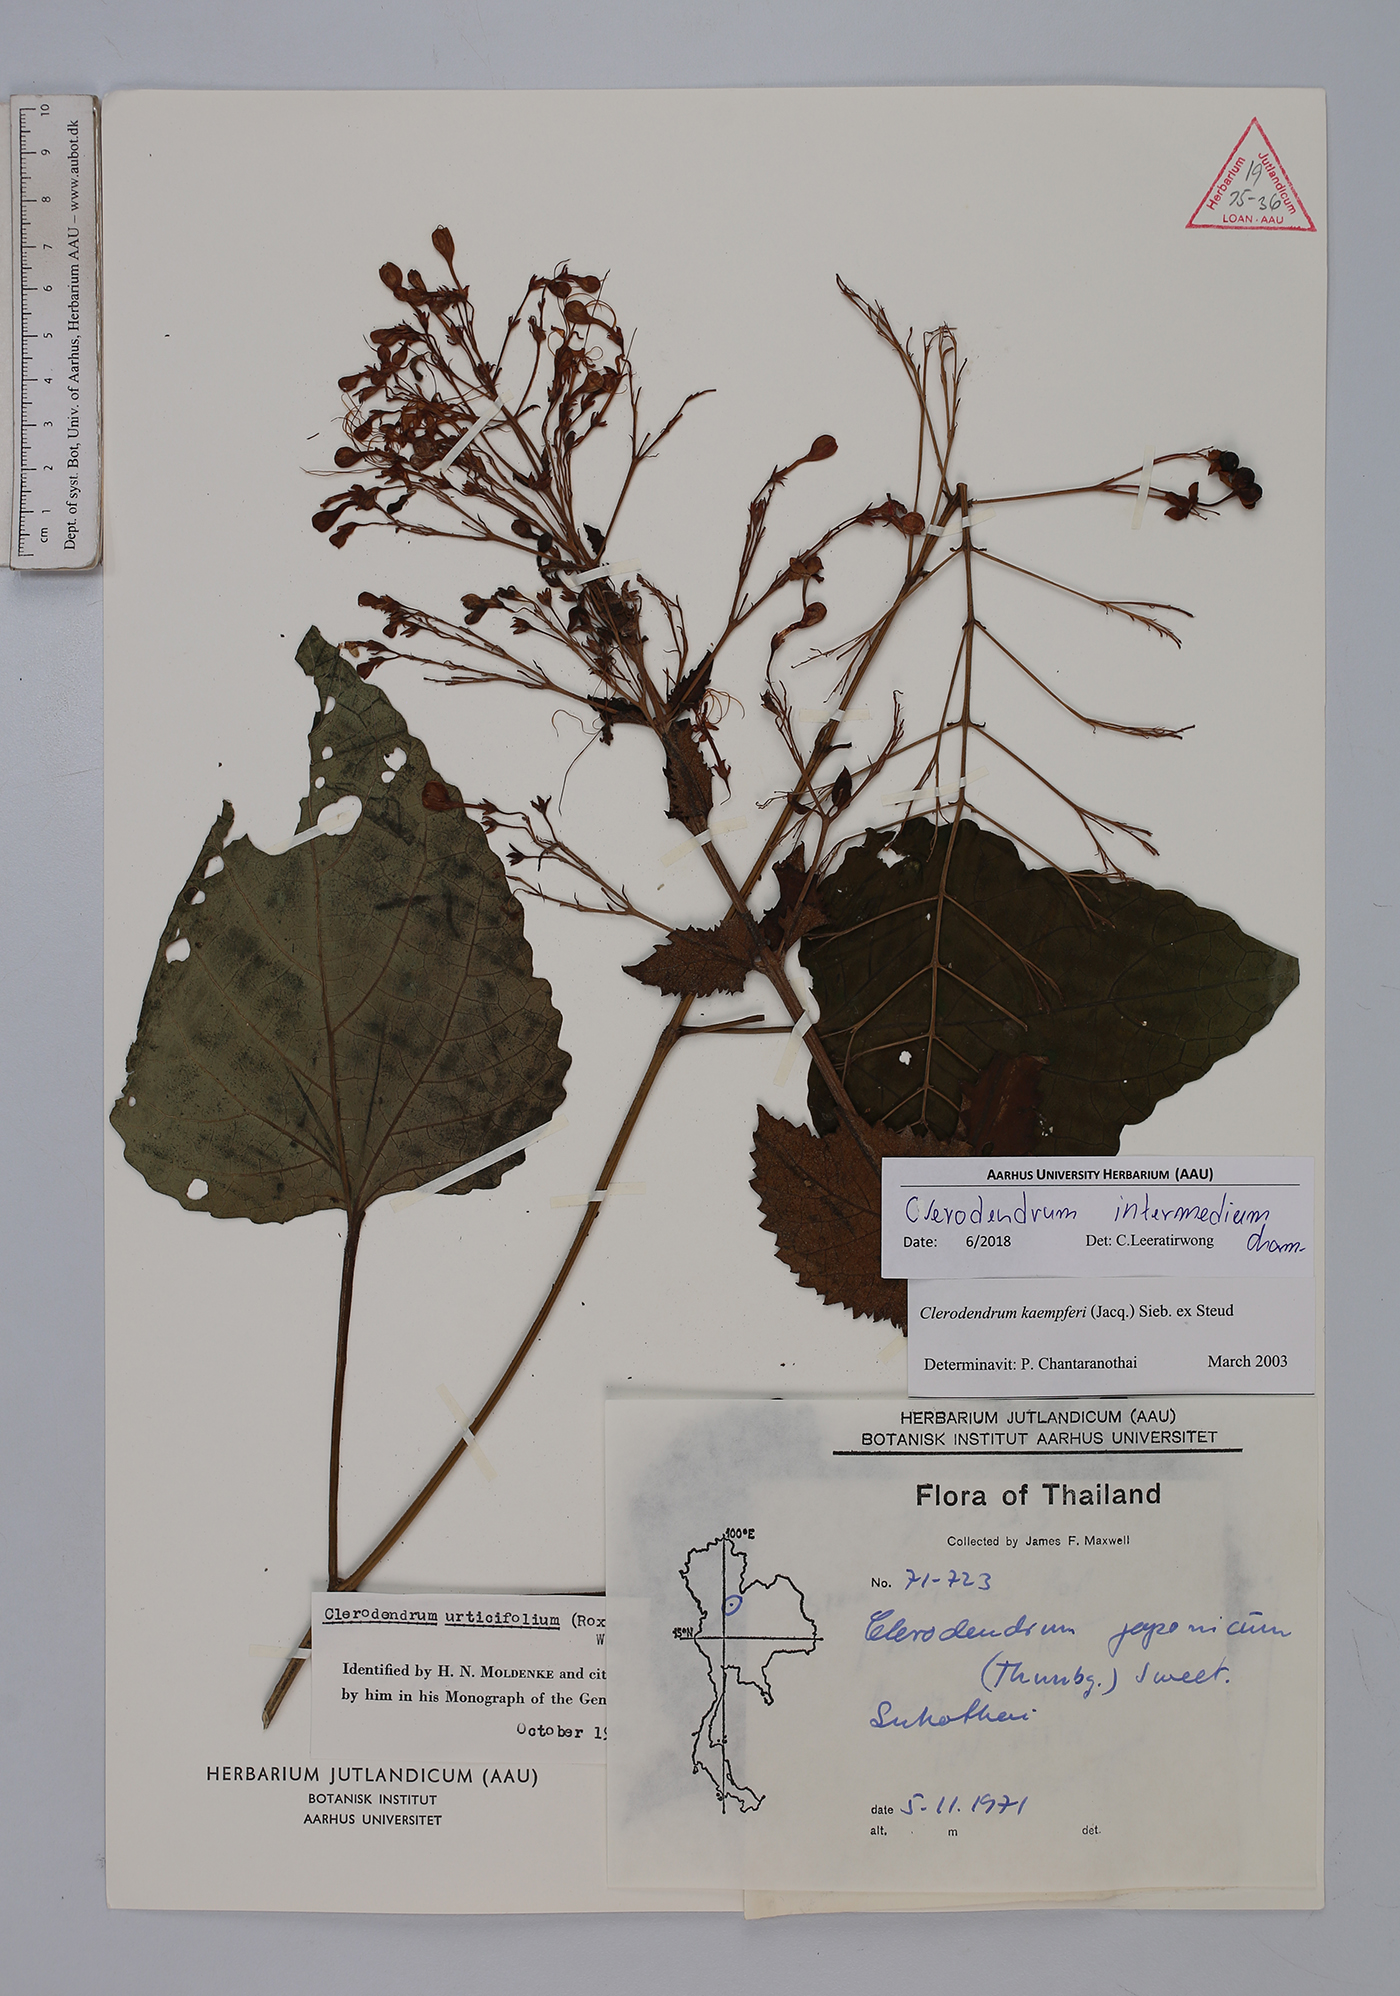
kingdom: Plantae
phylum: Tracheophyta
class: Magnoliopsida
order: Lamiales
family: Lamiaceae
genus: Clerodendrum
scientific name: Clerodendrum intermedium
